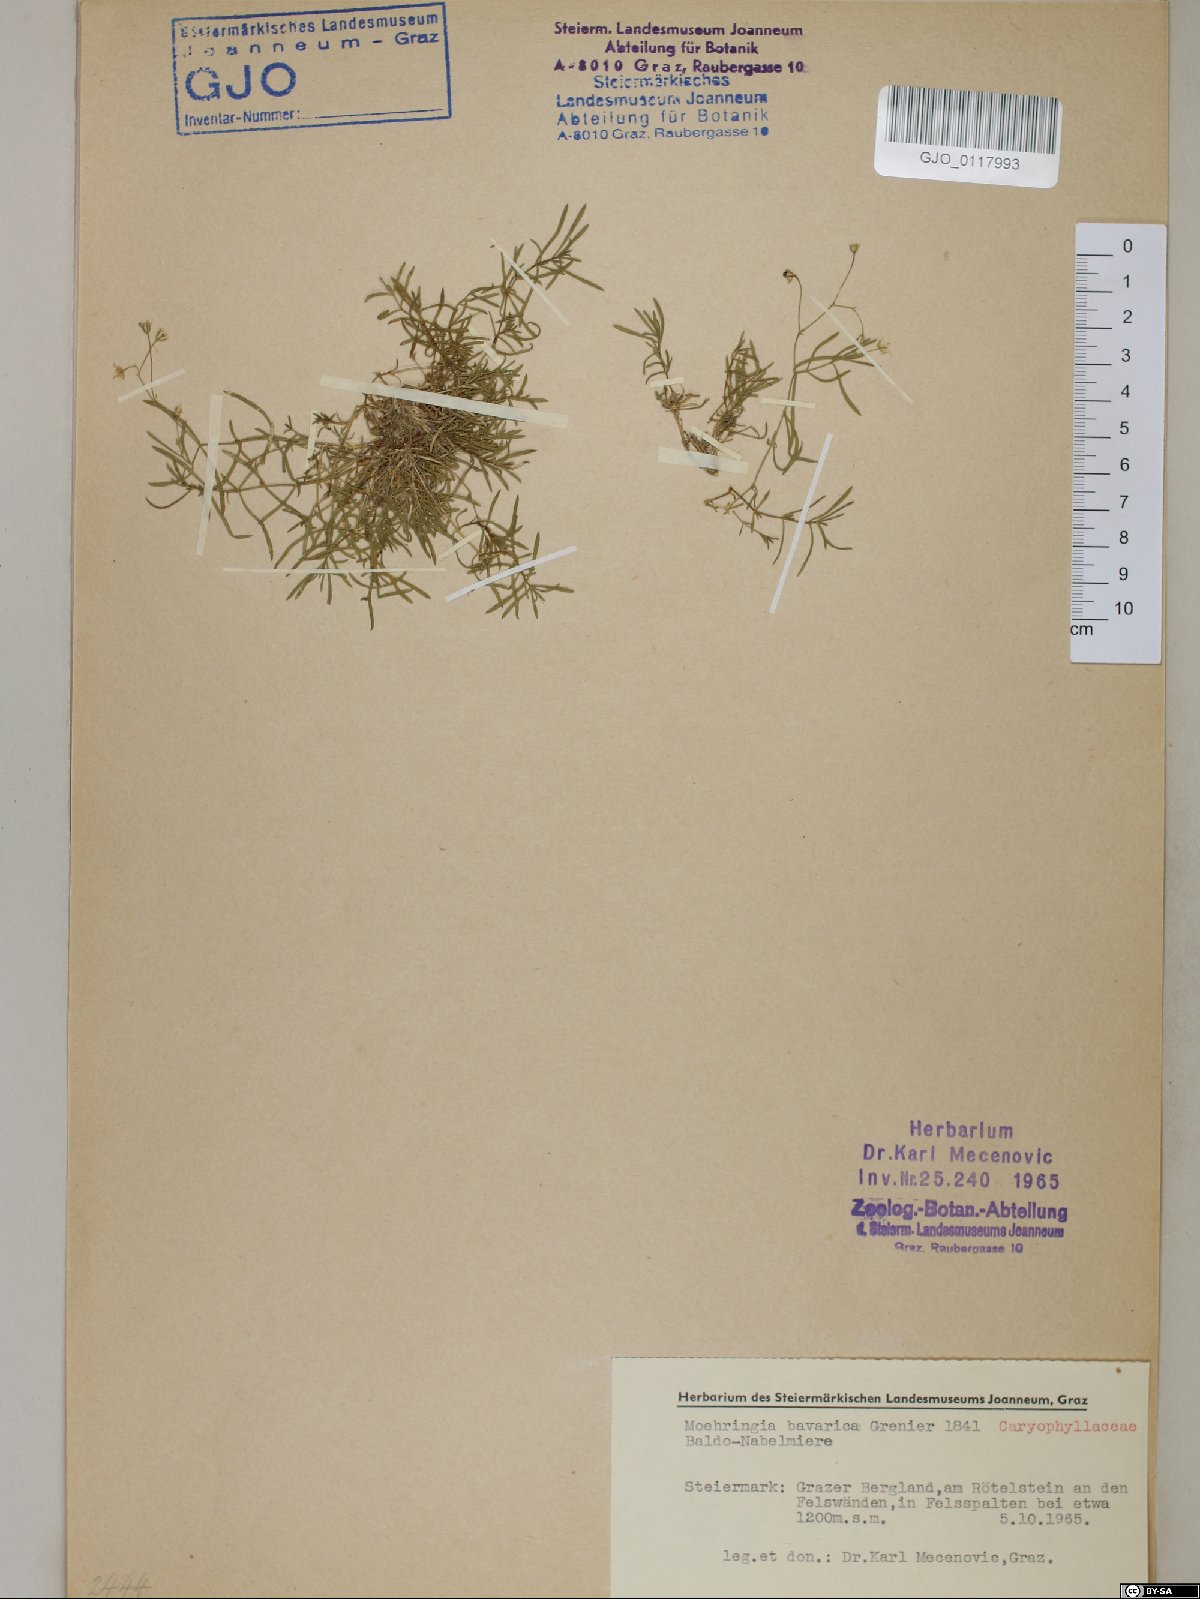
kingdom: Plantae
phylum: Tracheophyta
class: Magnoliopsida
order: Caryophyllales
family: Caryophyllaceae
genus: Moehringia
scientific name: Moehringia bavarica
